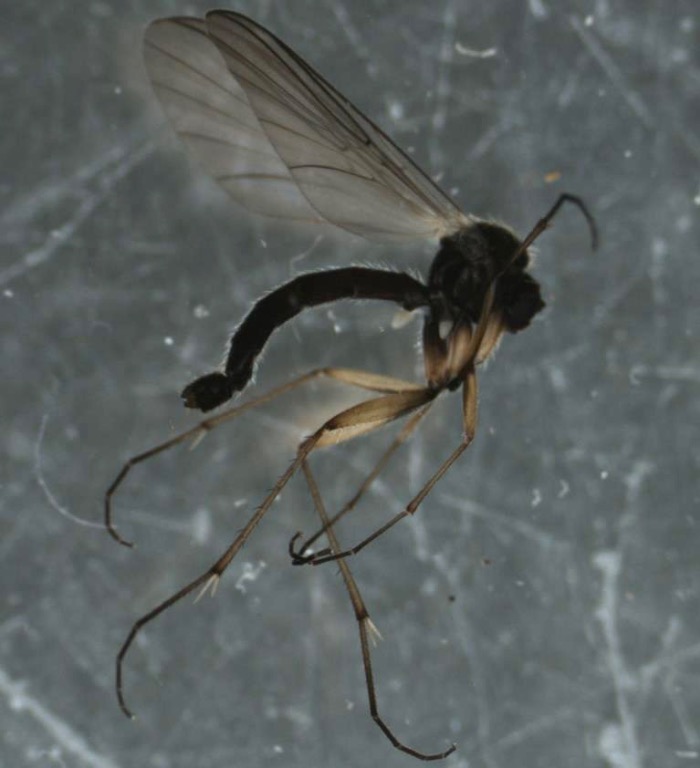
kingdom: Animalia
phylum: Arthropoda
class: Insecta
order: Diptera
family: Mycetophilidae
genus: Boletina
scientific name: Boletina gripha
